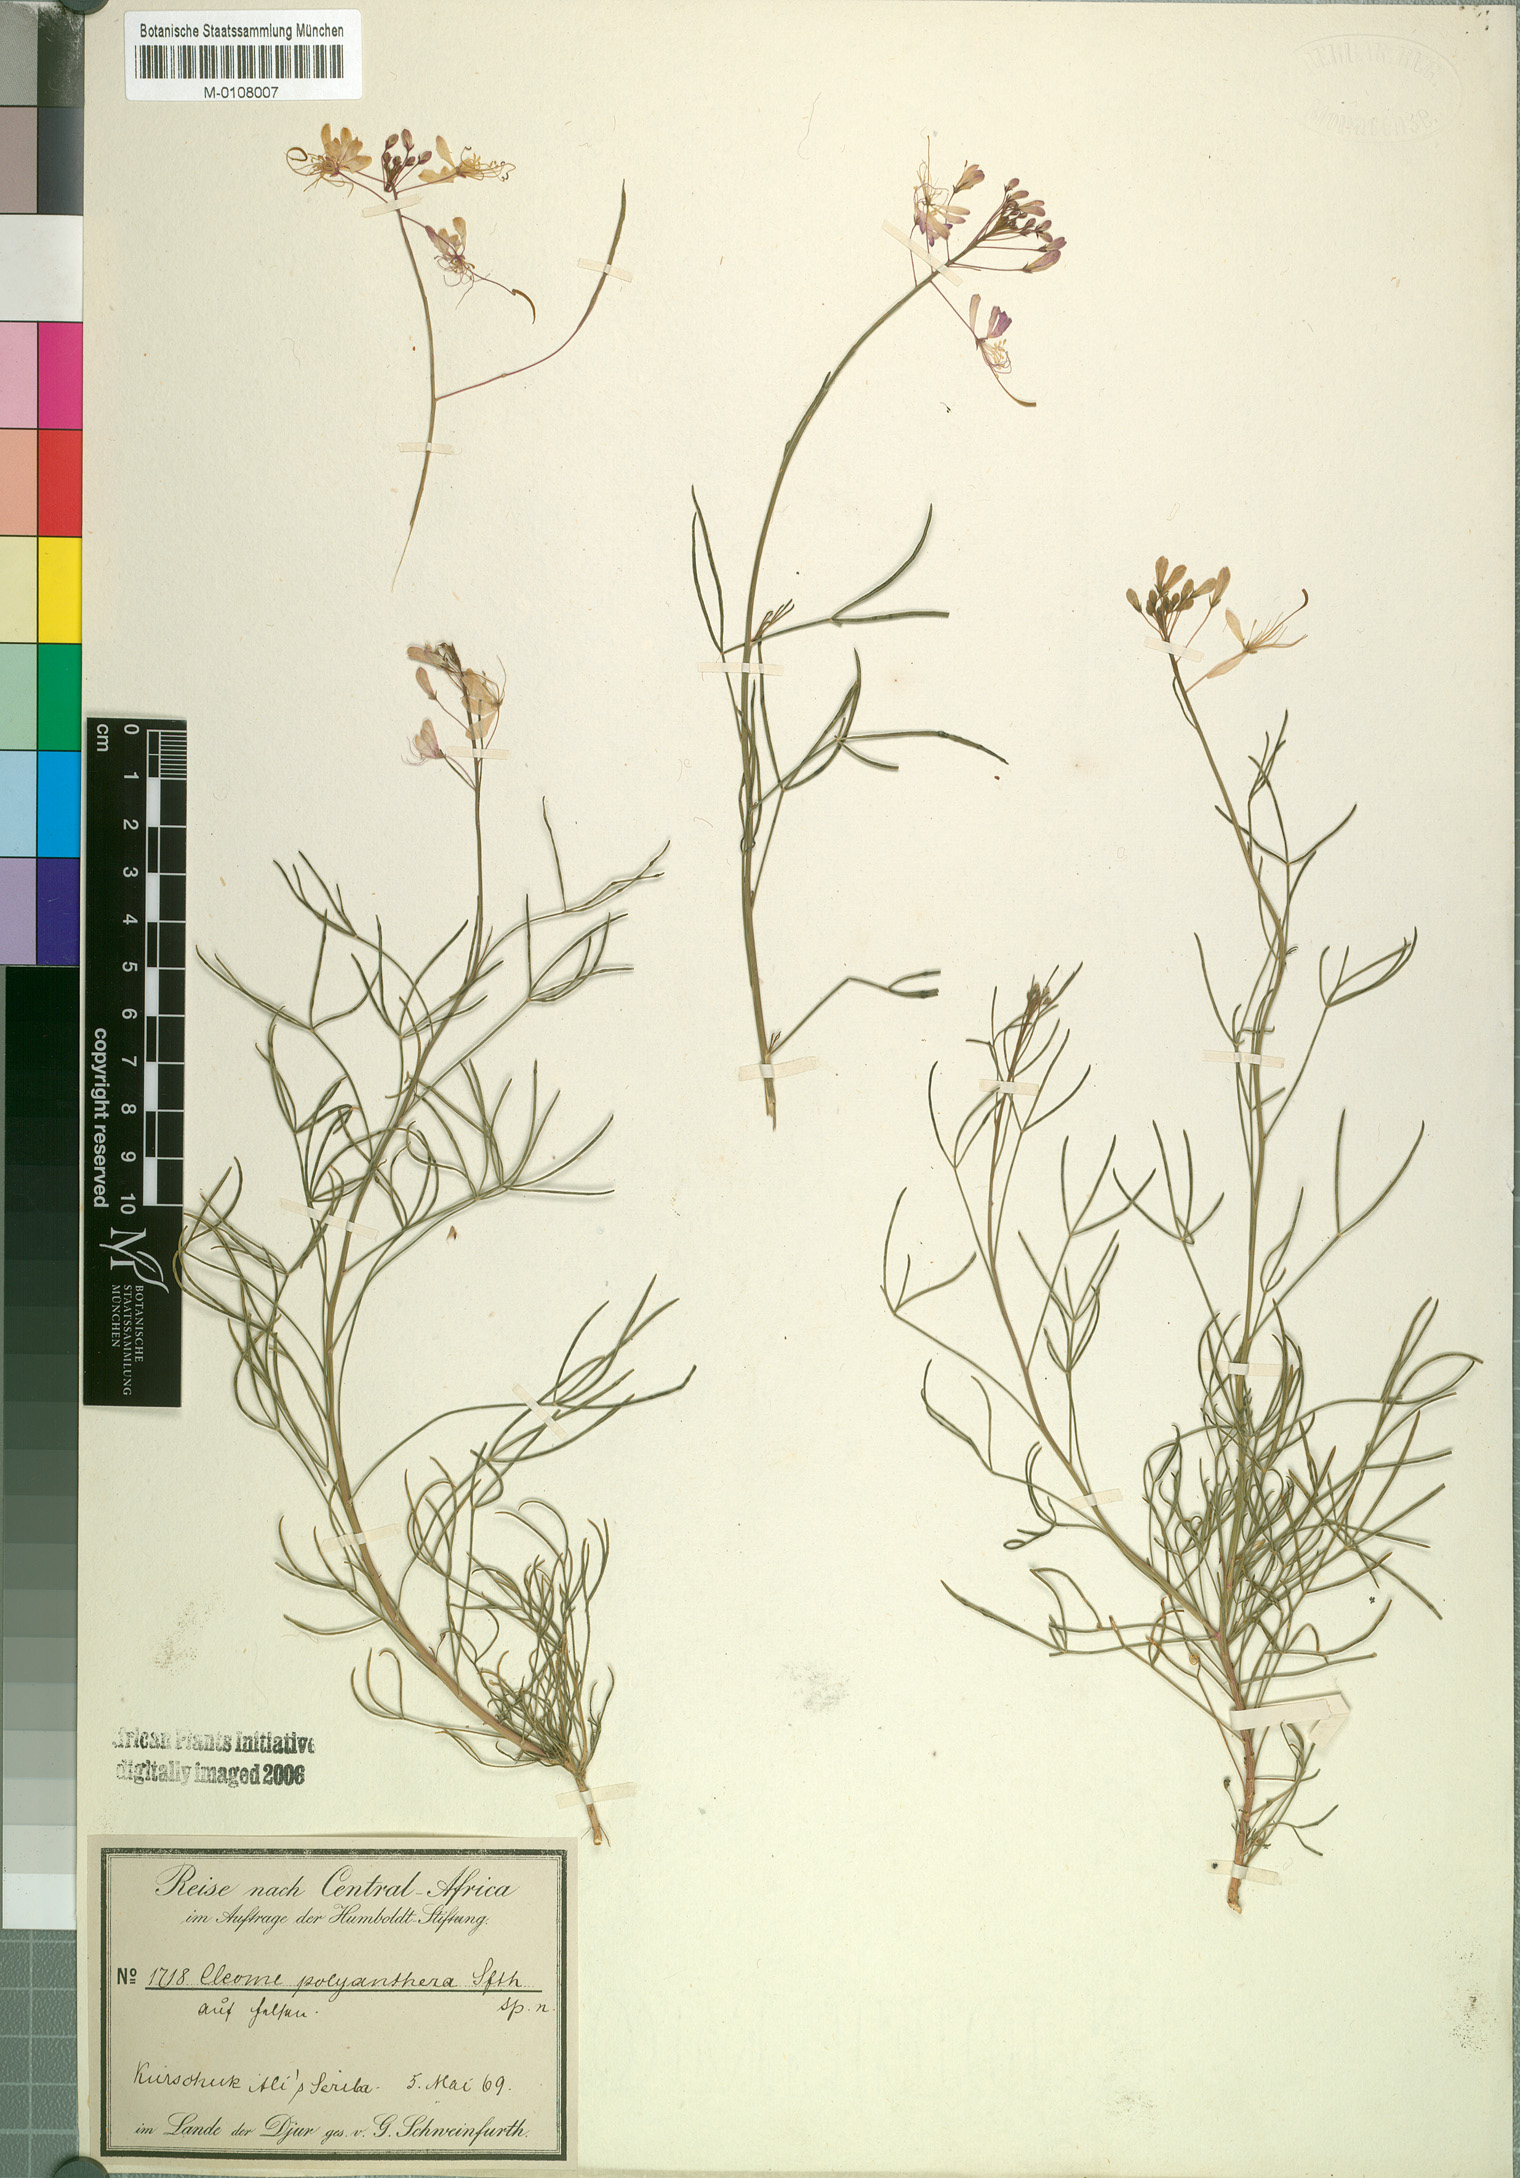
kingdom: Plantae
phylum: Tracheophyta
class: Magnoliopsida
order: Brassicales
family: Cleomaceae
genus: Coalisina
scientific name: Coalisina polyanthera
